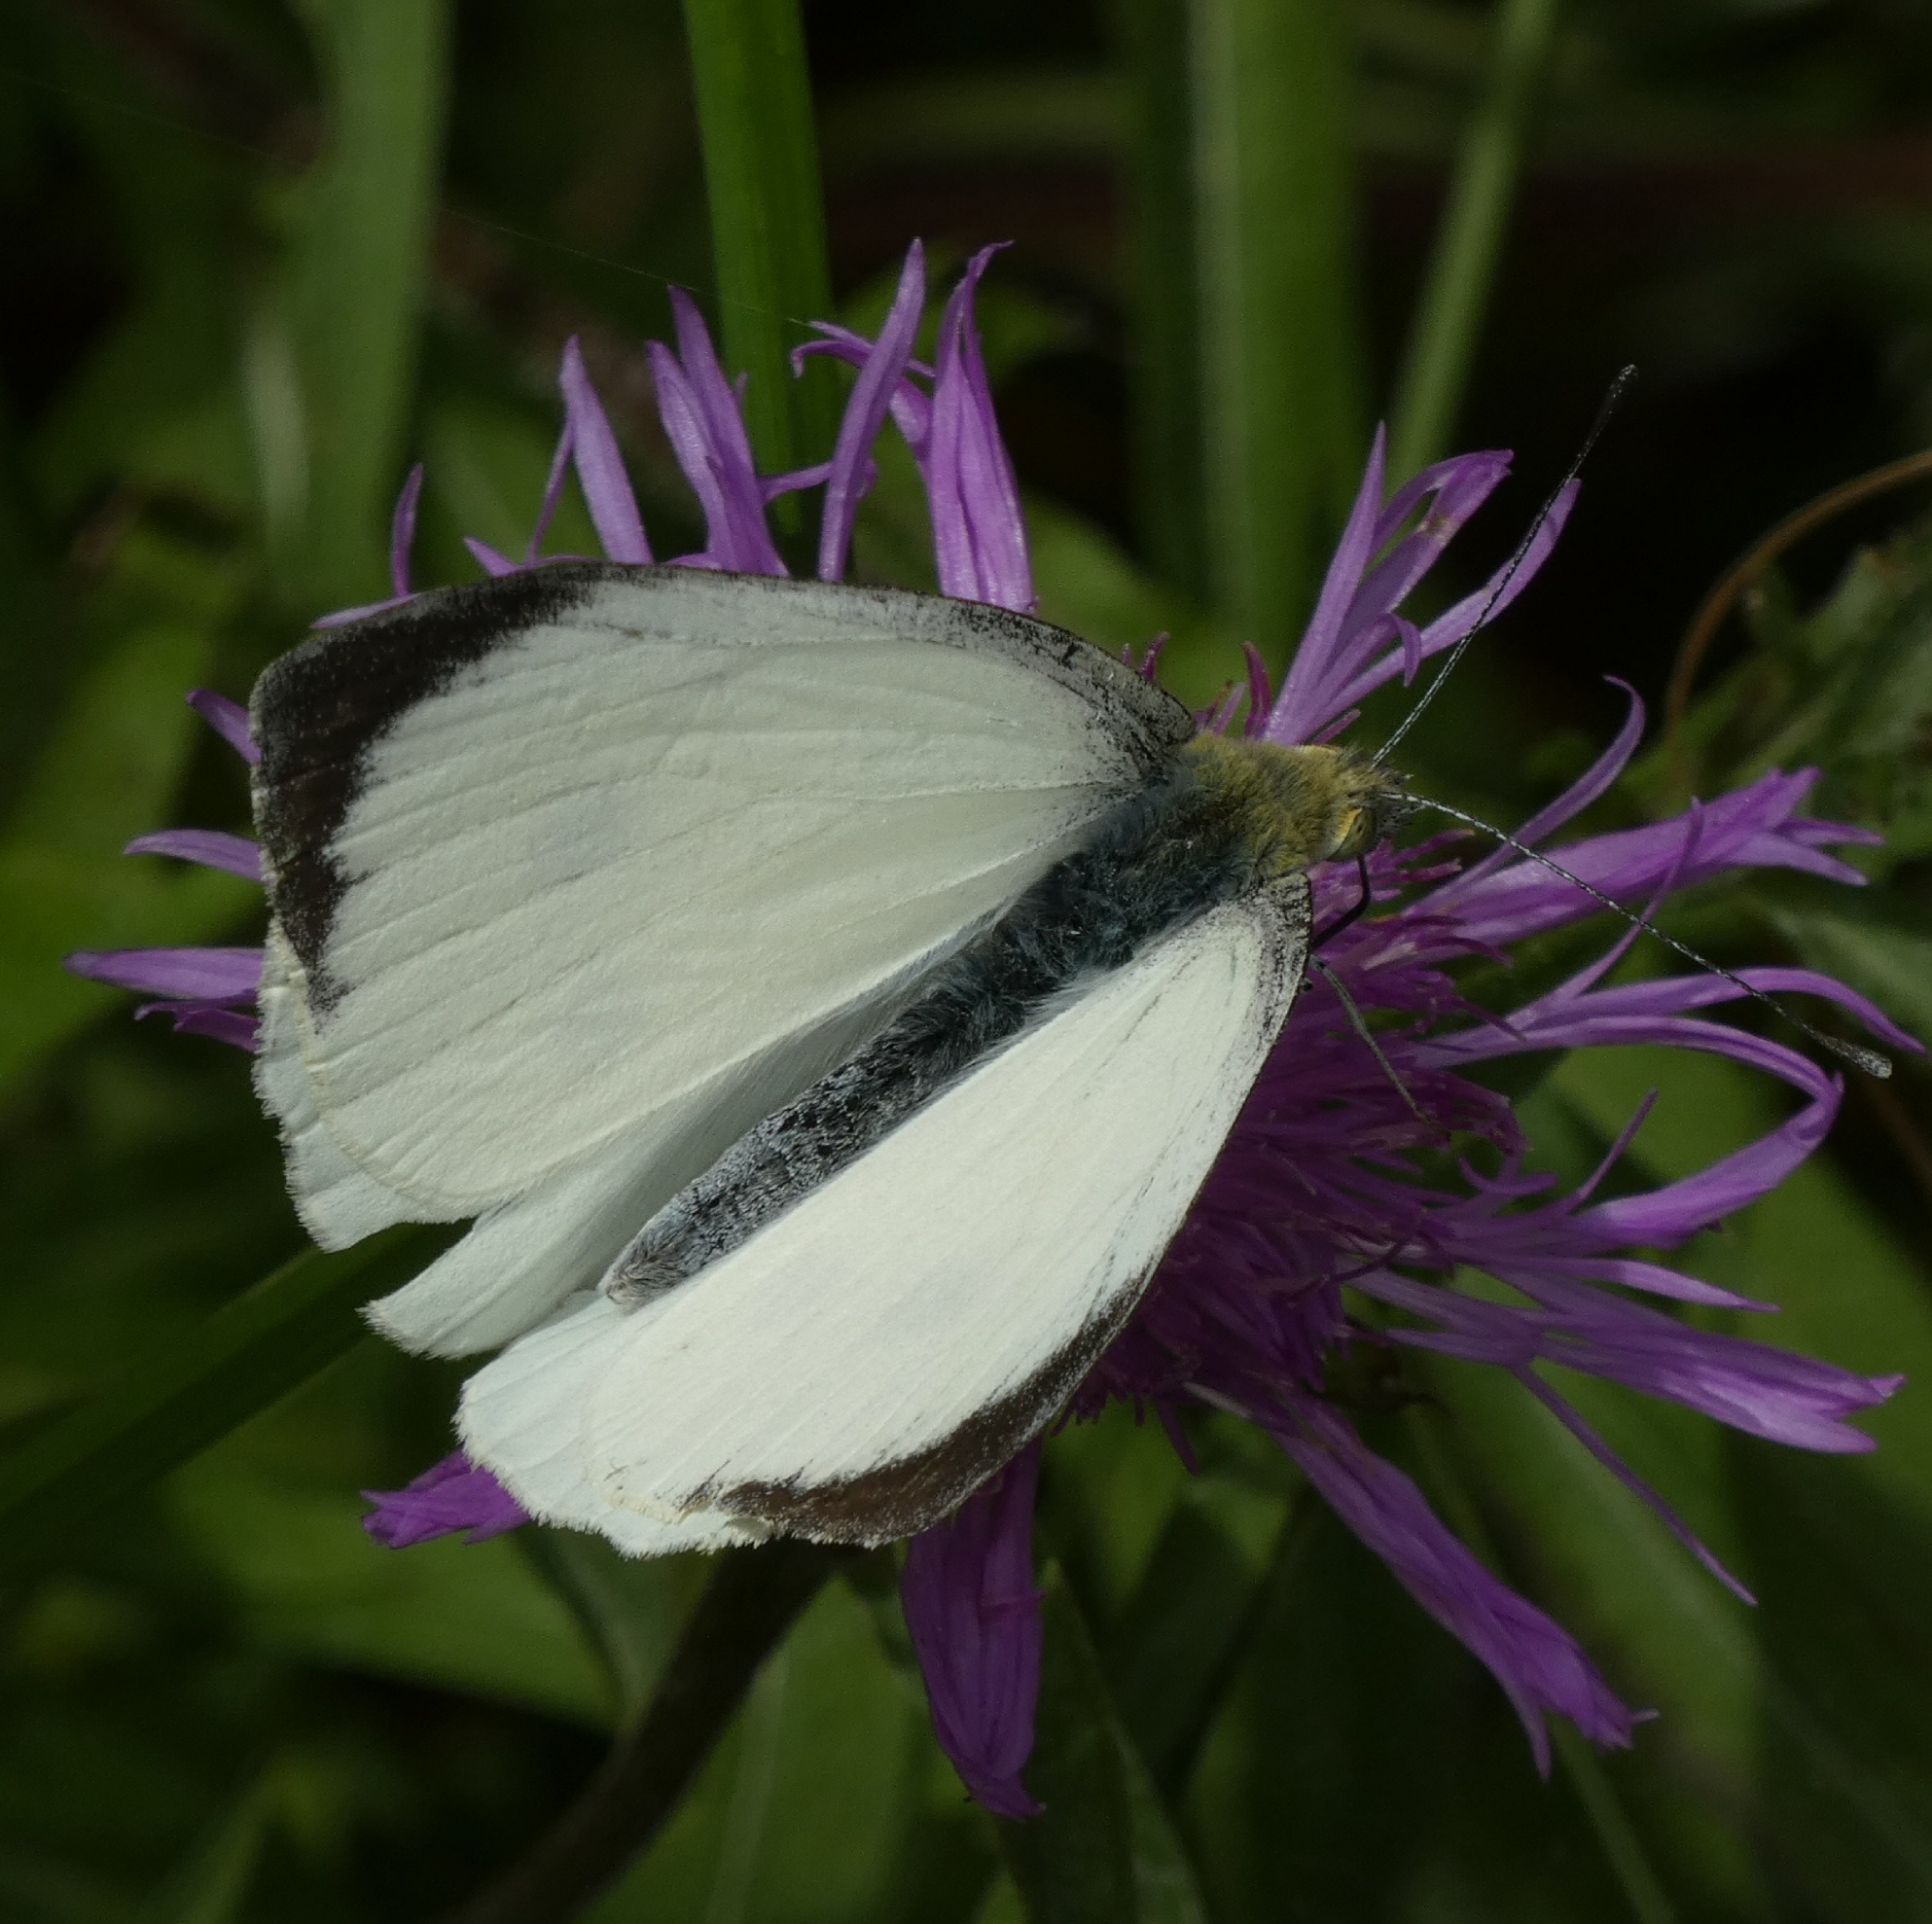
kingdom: Animalia
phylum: Arthropoda
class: Insecta
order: Lepidoptera
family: Pieridae
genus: Pieris
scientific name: Pieris brassicae
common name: Stor kålsommerfugl
